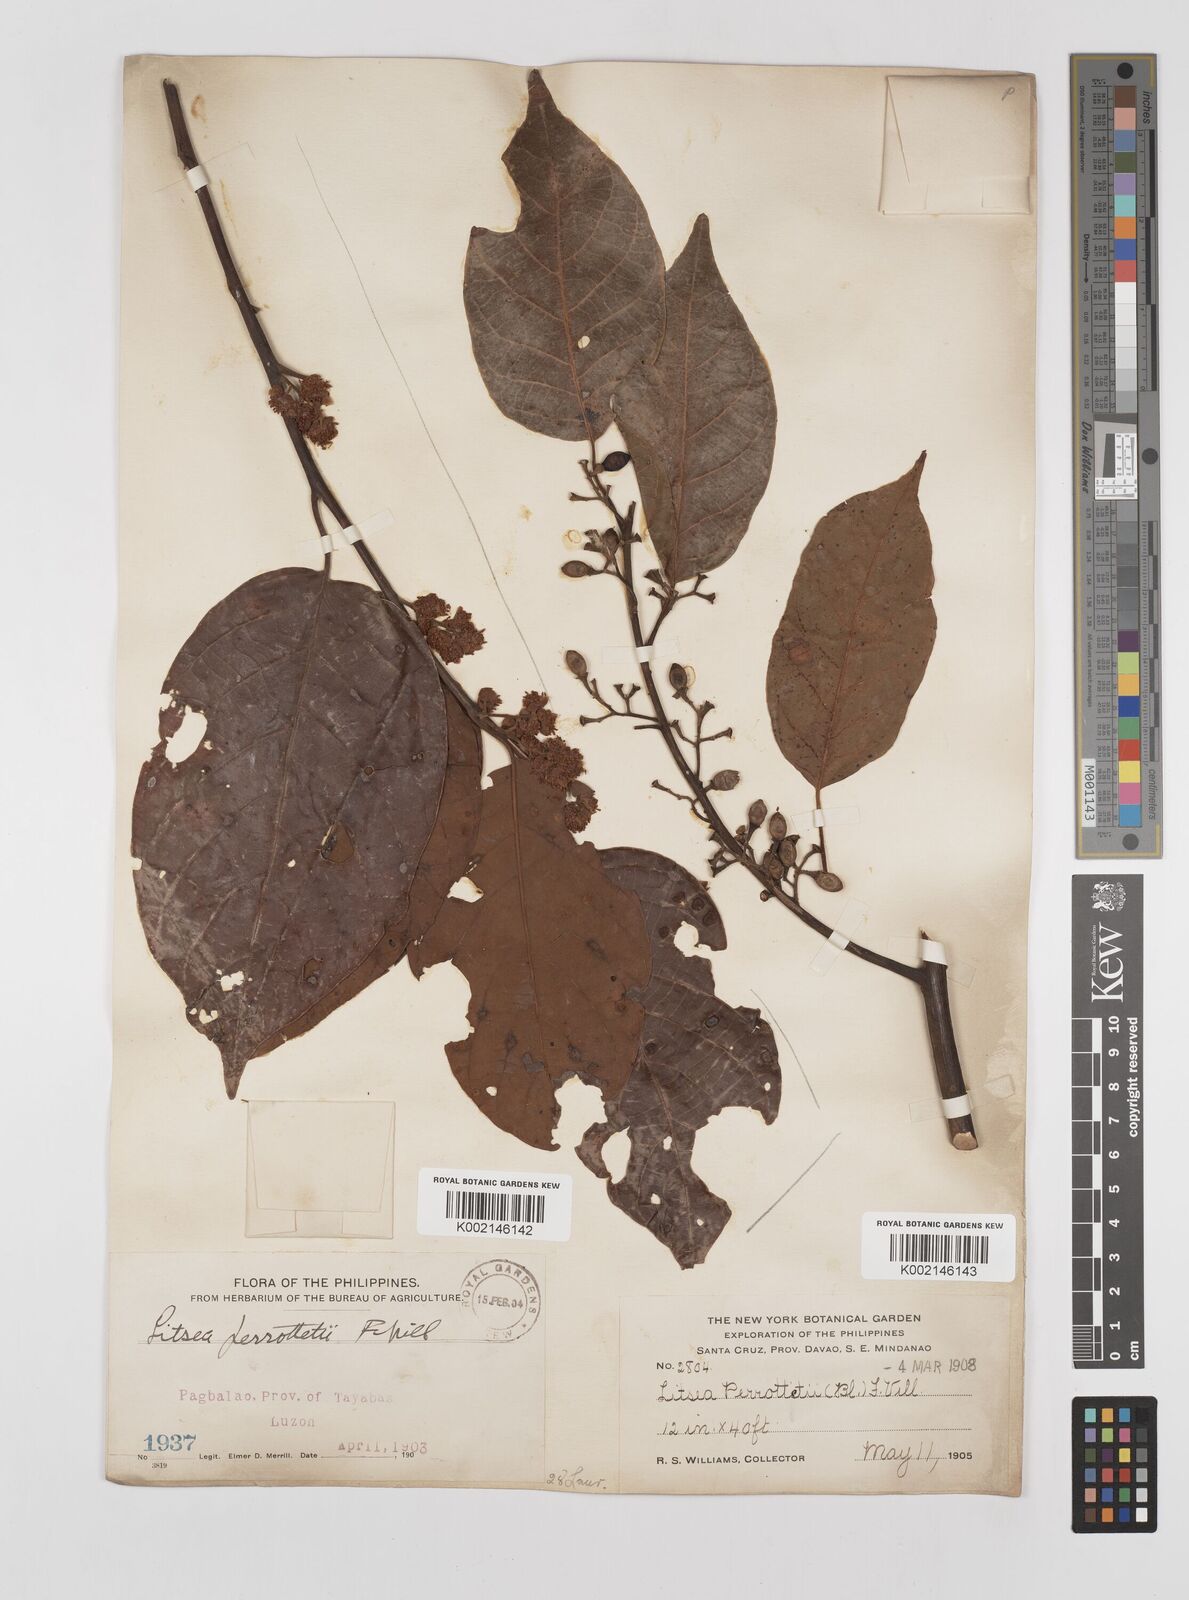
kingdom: Plantae
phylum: Tracheophyta
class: Magnoliopsida
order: Laurales
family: Lauraceae
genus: Litsea
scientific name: Litsea cordata
